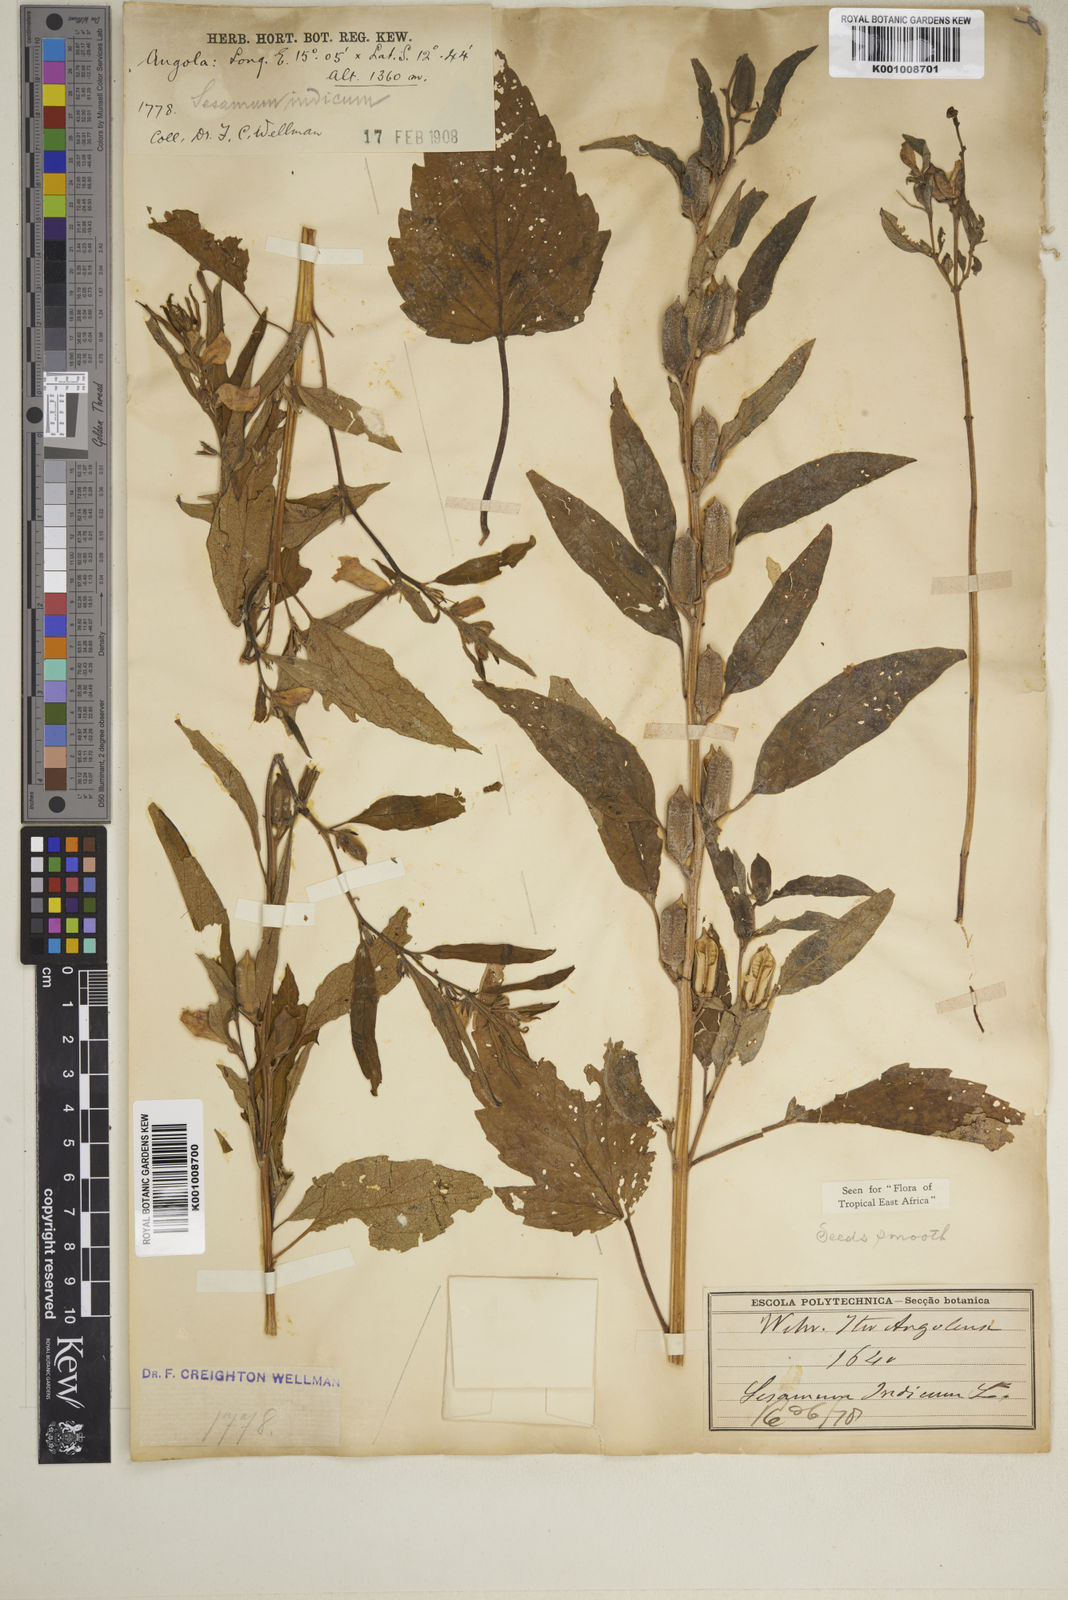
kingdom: Plantae
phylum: Tracheophyta
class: Magnoliopsida
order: Lamiales
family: Pedaliaceae
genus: Sesamum
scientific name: Sesamum indicum
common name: Sesame
